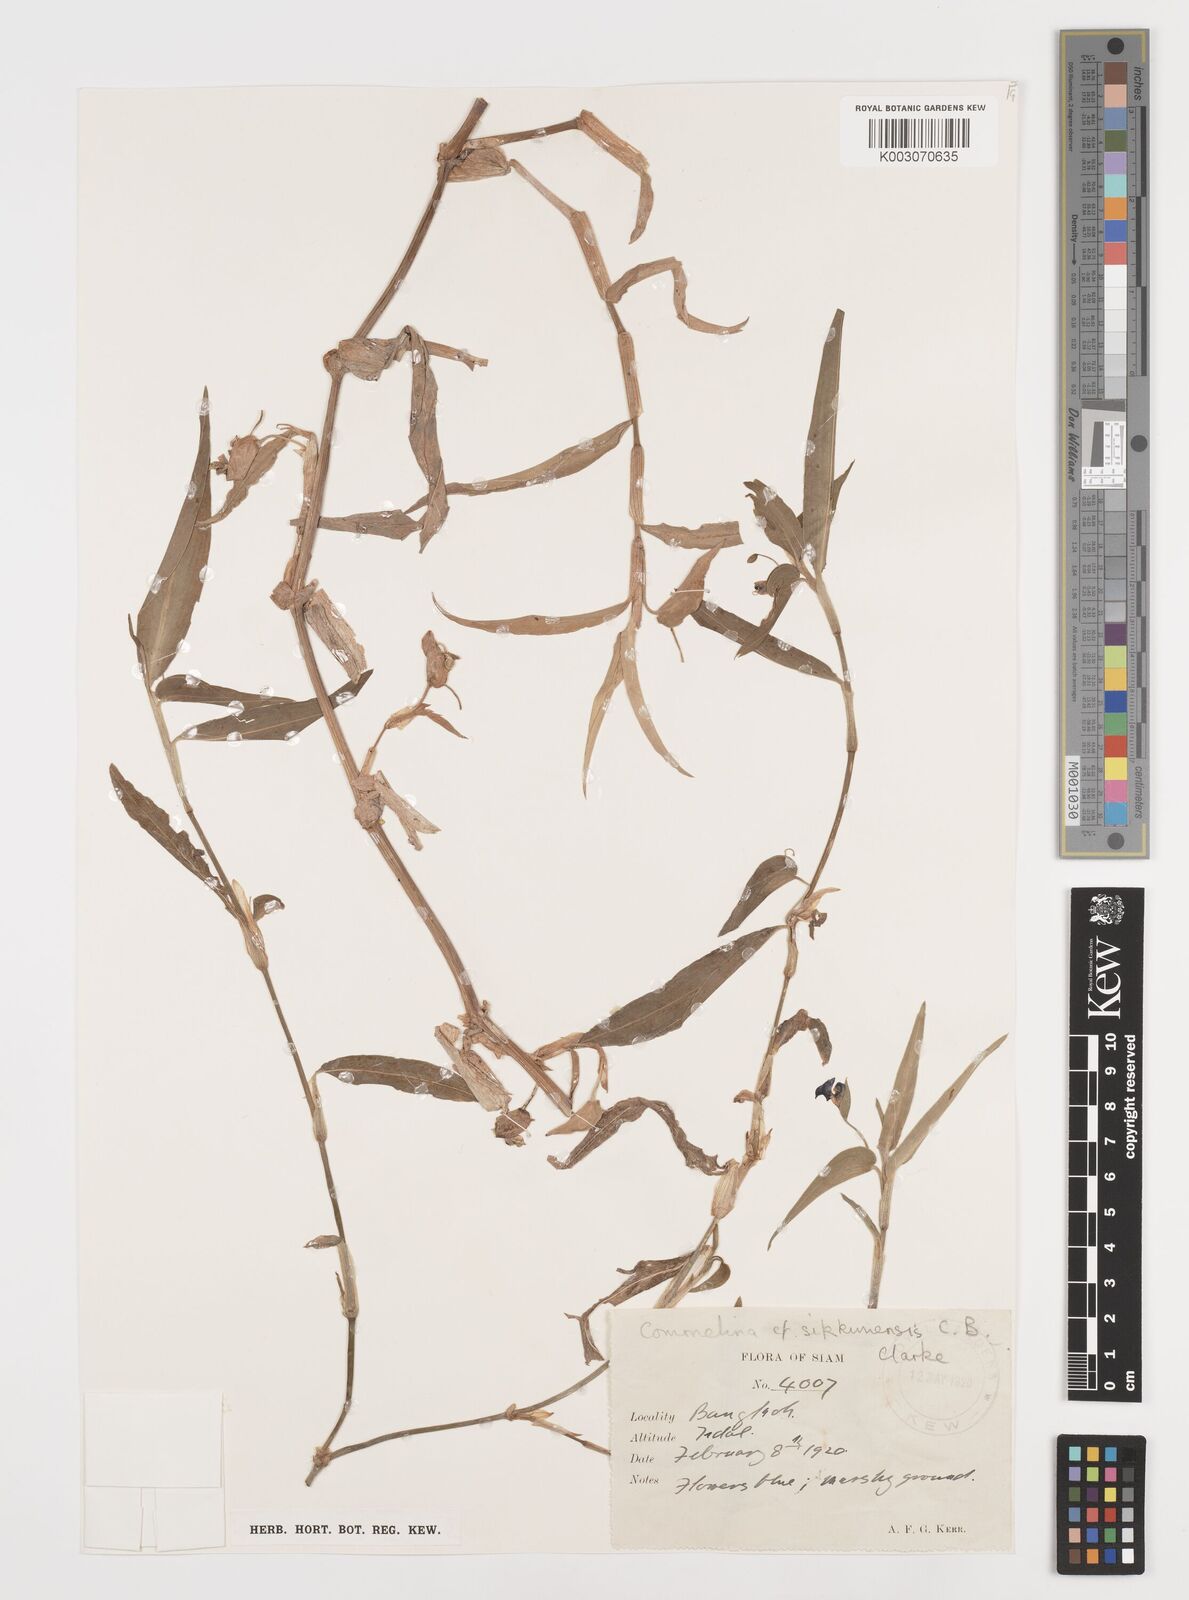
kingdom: Plantae
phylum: Tracheophyta
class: Liliopsida
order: Commelinales
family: Commelinaceae
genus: Commelina
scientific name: Commelina sikkimensis
